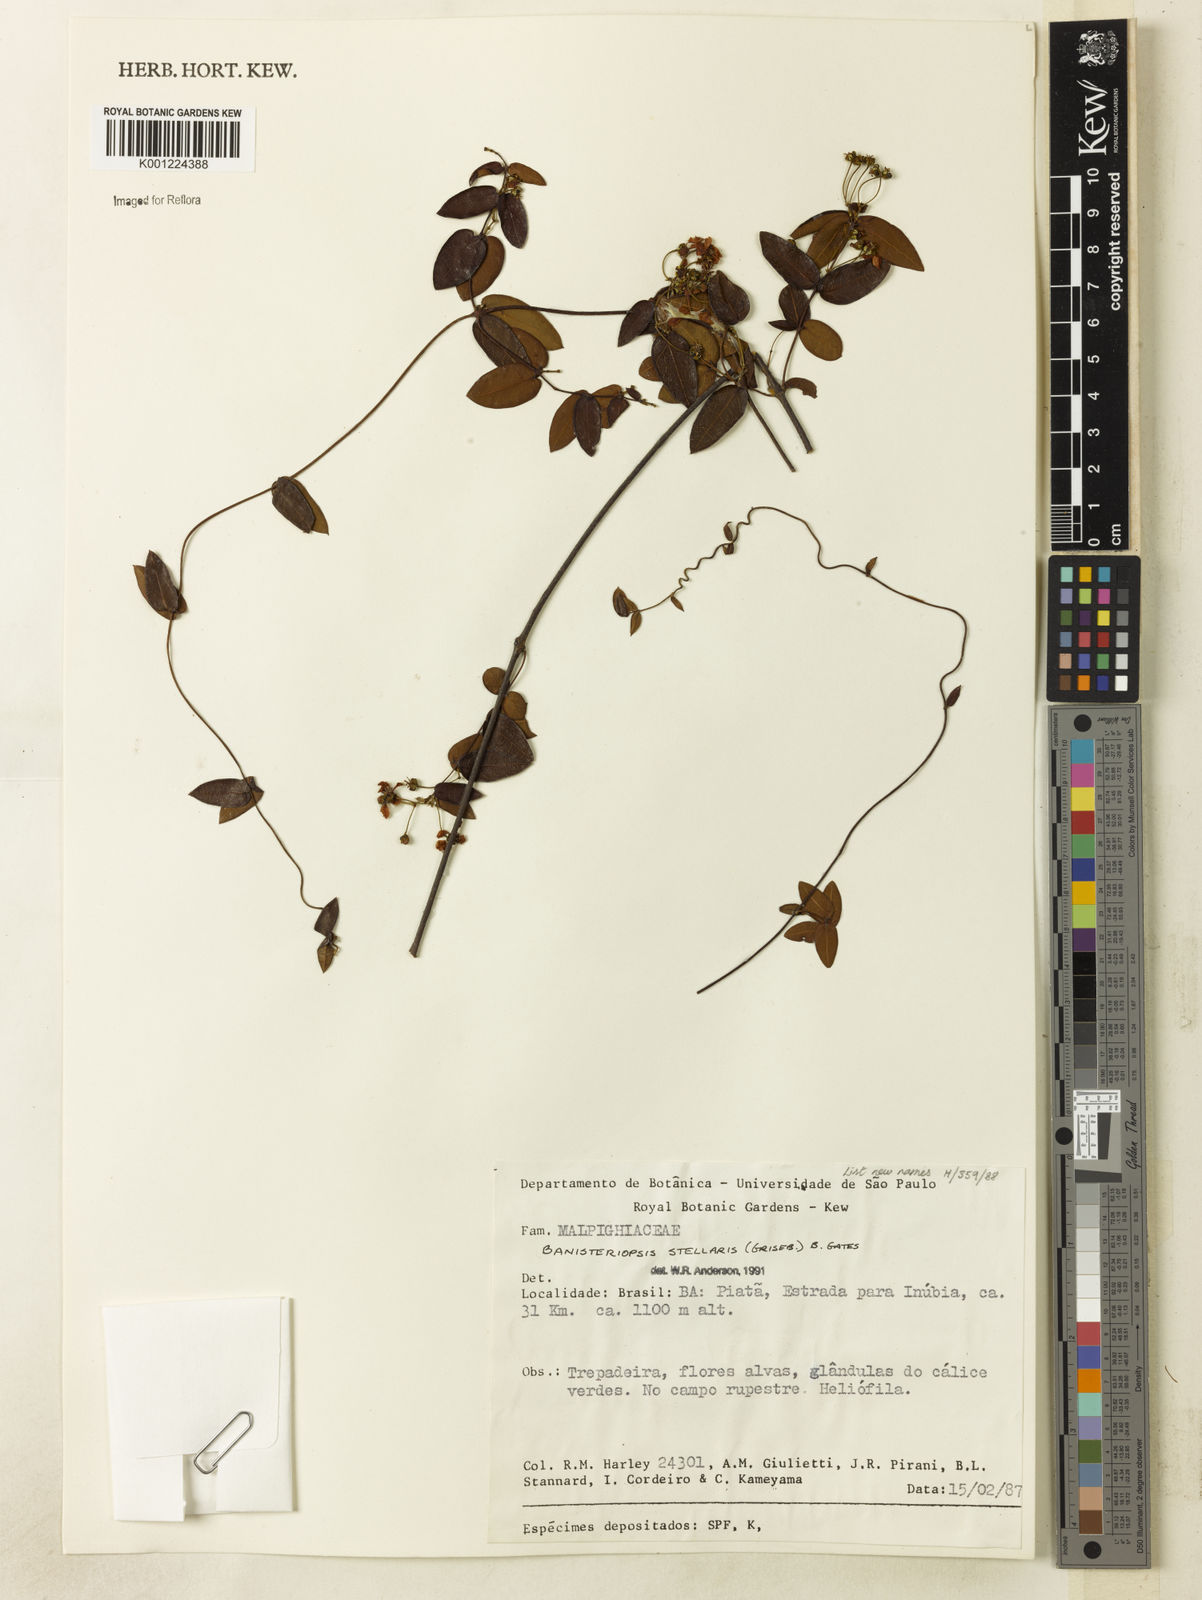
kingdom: Plantae
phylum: Tracheophyta
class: Magnoliopsida
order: Malpighiales
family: Malpighiaceae
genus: Banisteriopsis
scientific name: Banisteriopsis stellaris
